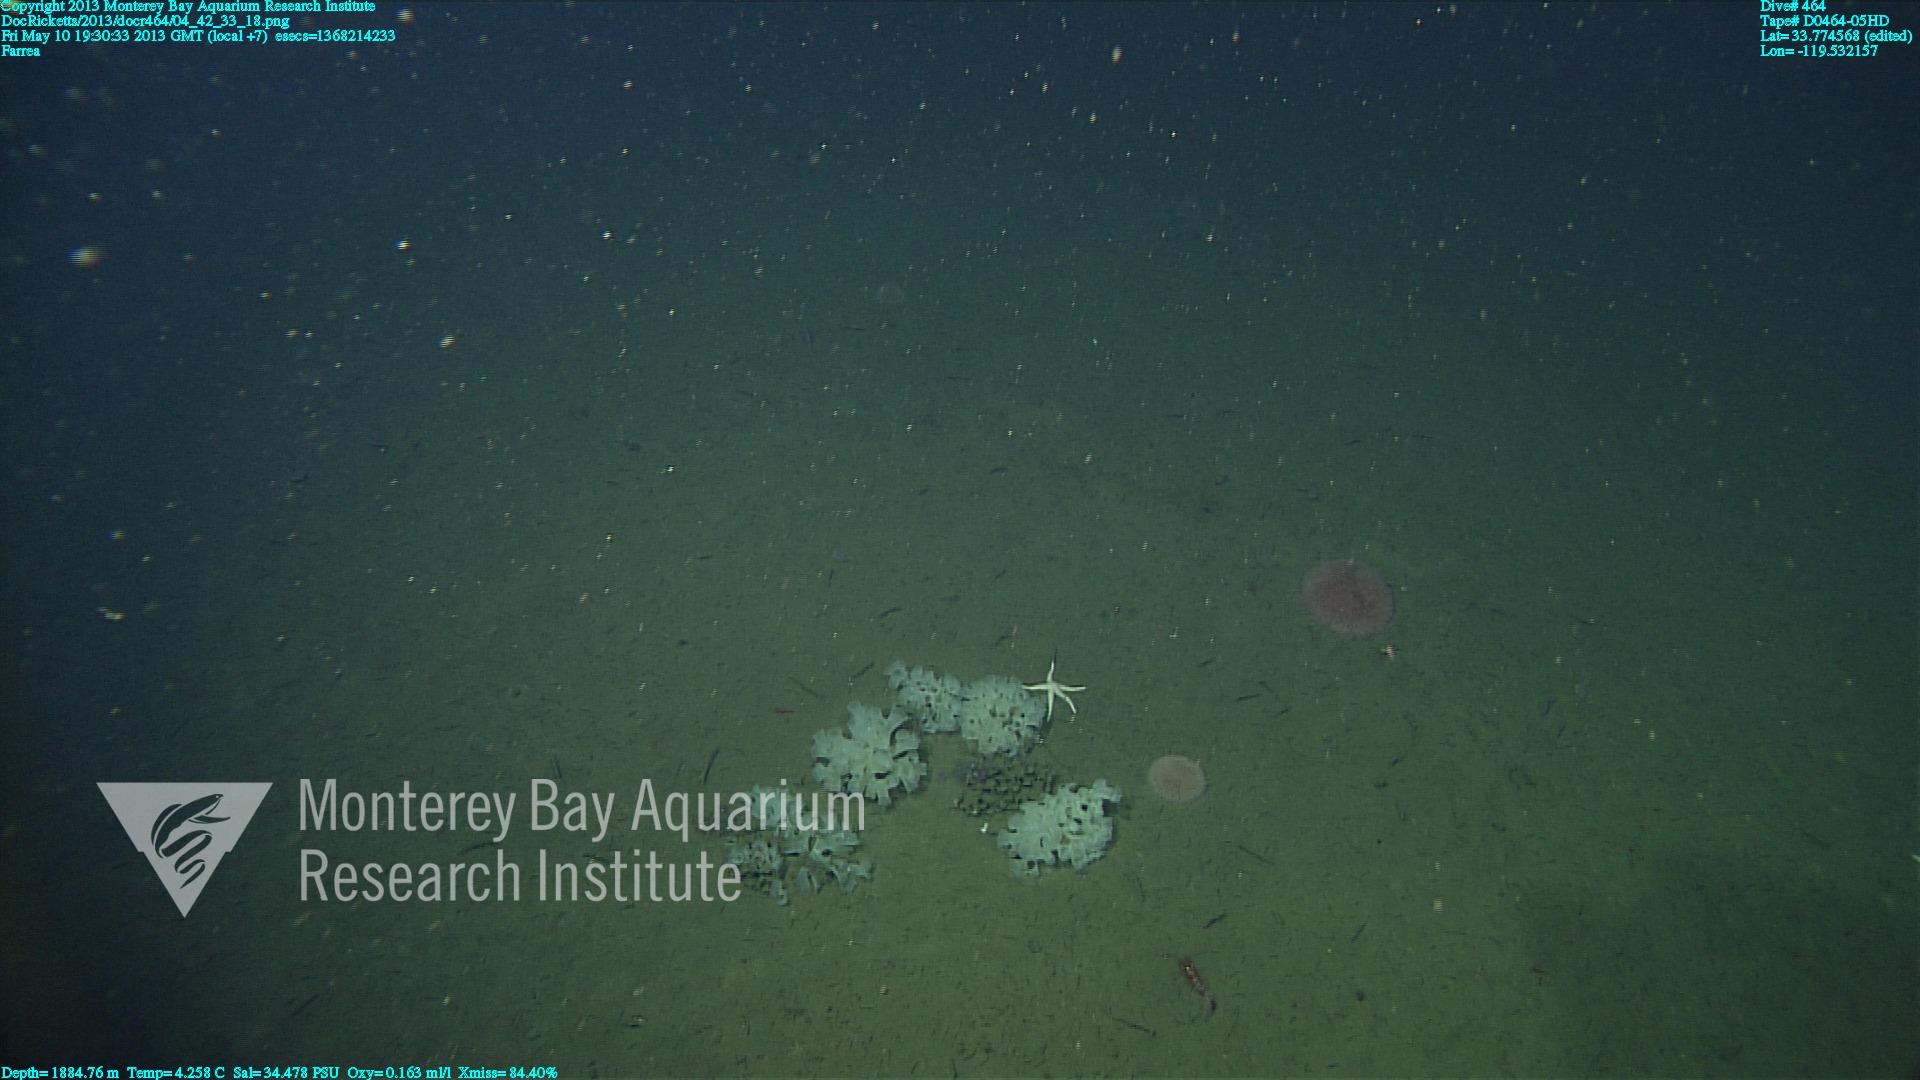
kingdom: Animalia
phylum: Porifera
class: Hexactinellida
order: Sceptrulophora
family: Farreidae
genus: Farrea
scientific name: Farrea
